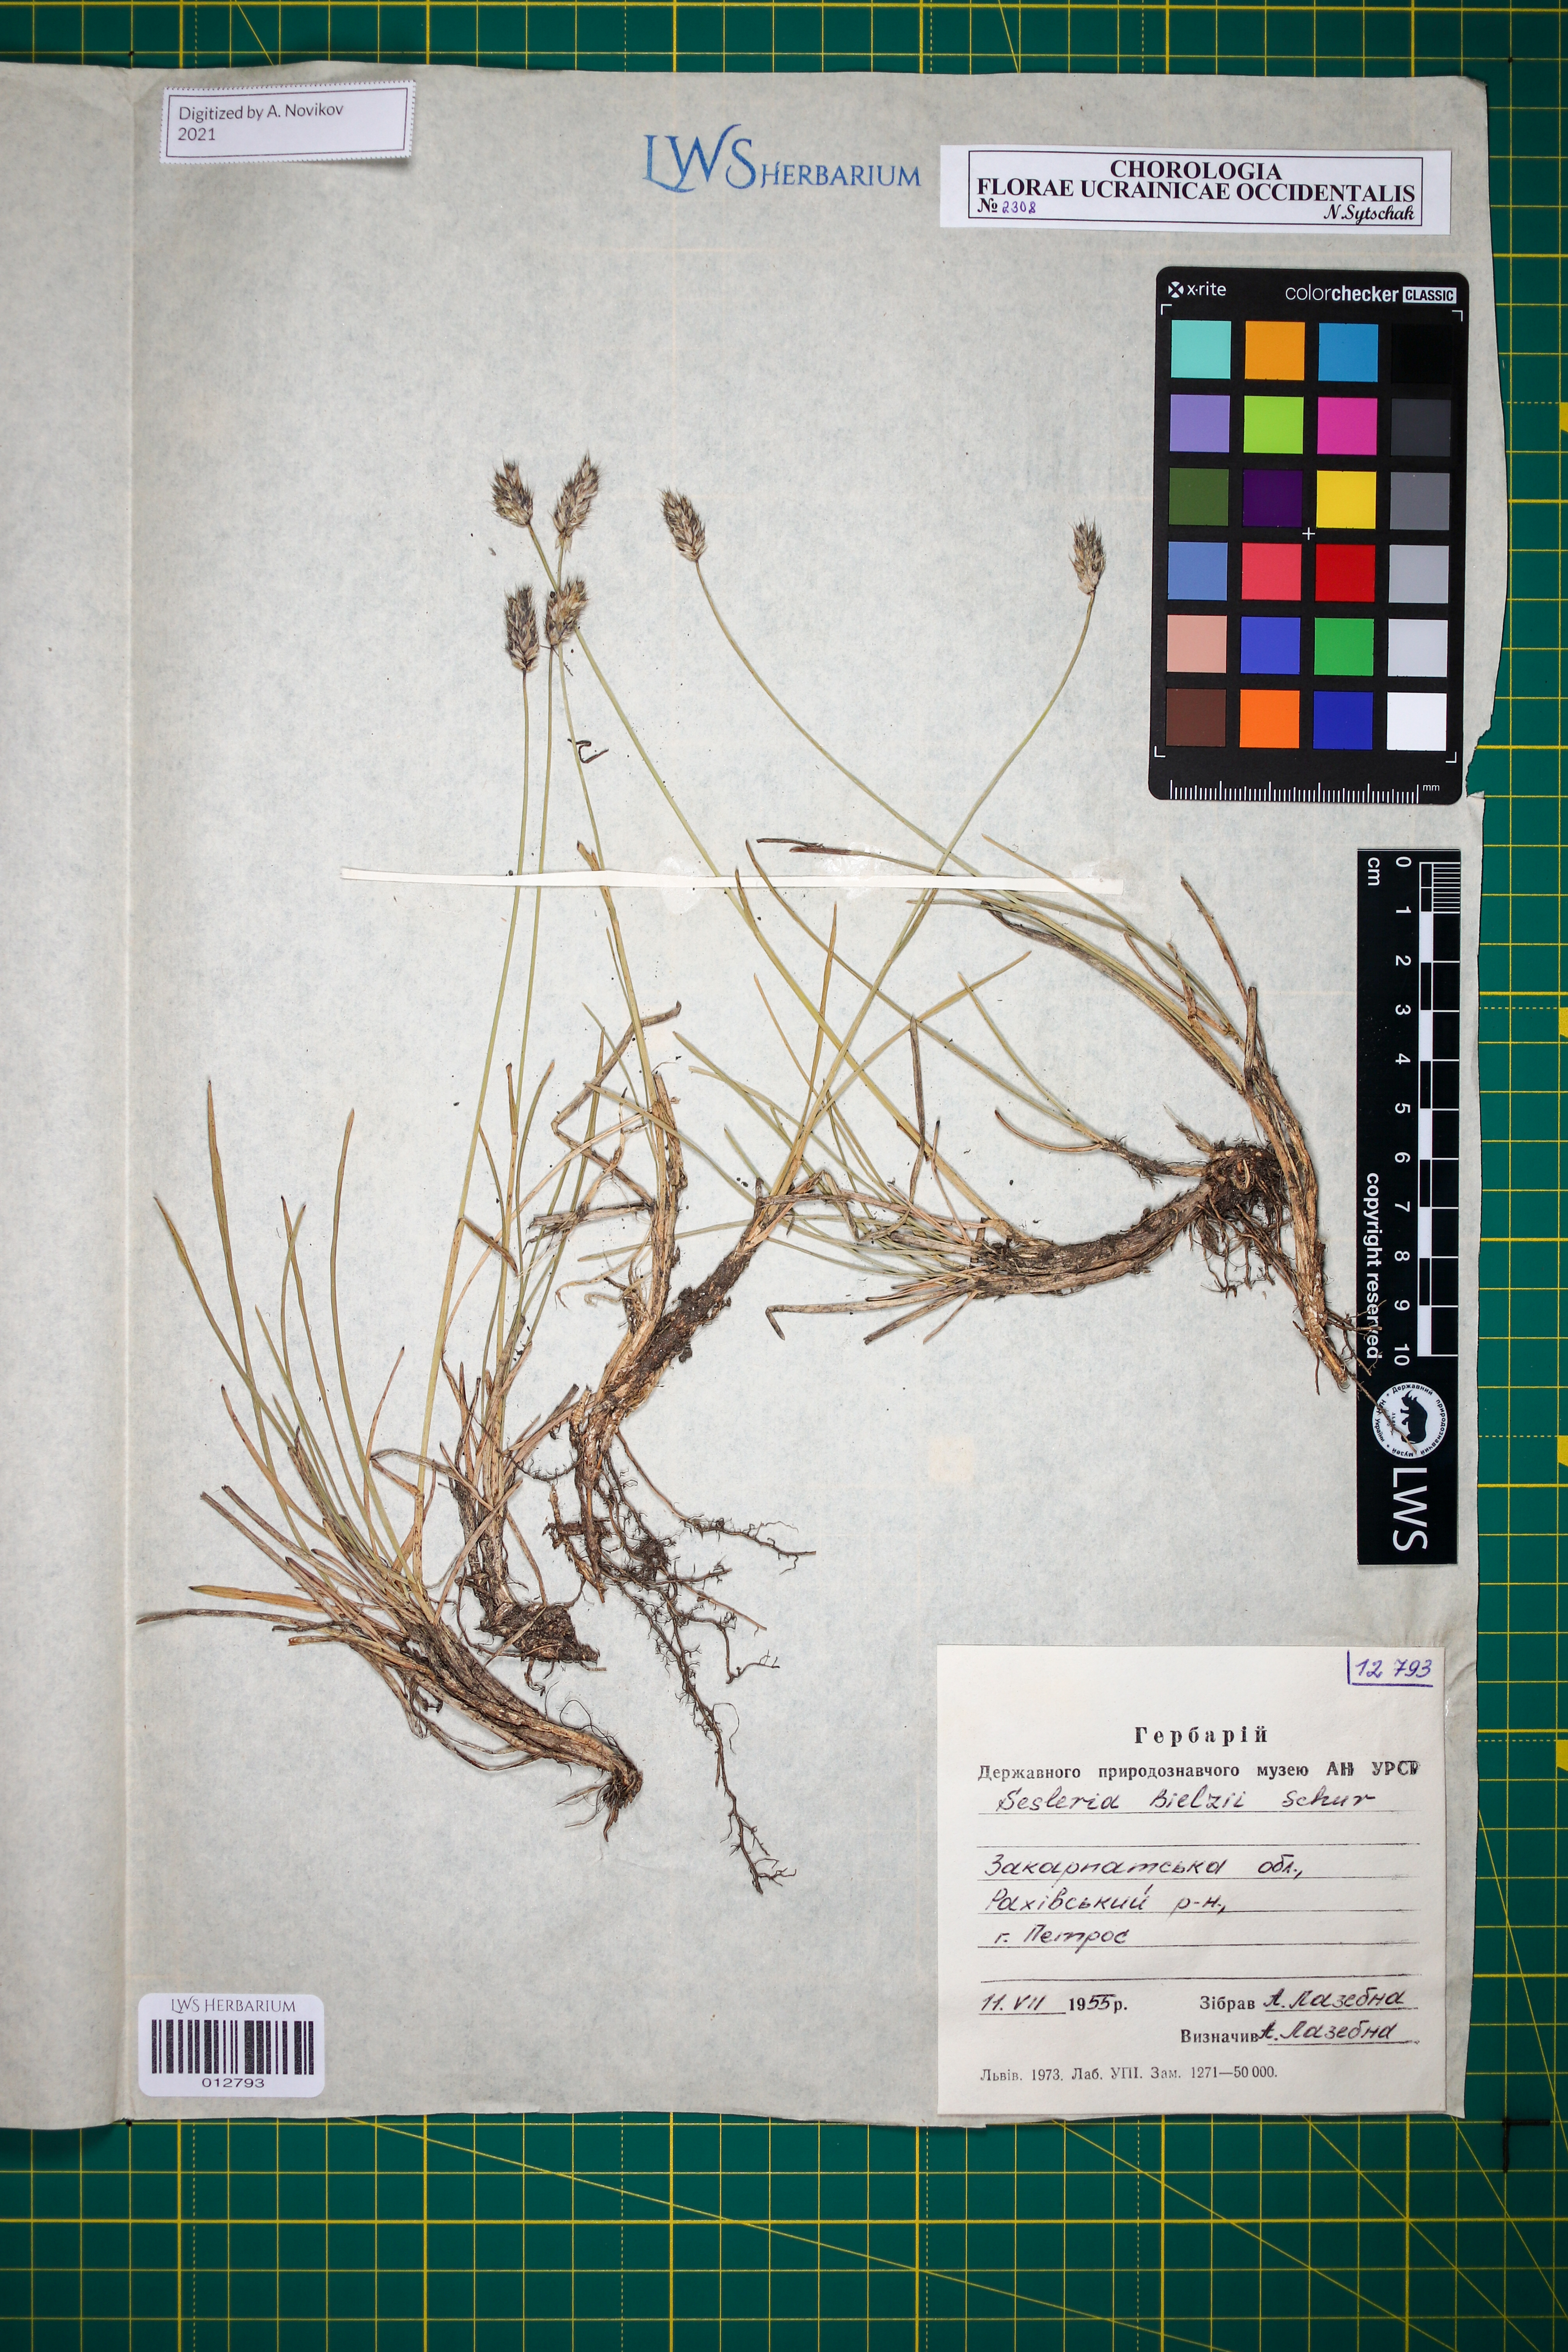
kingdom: Plantae
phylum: Tracheophyta
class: Liliopsida
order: Poales
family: Poaceae
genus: Sesleria
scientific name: Sesleria bielzii
